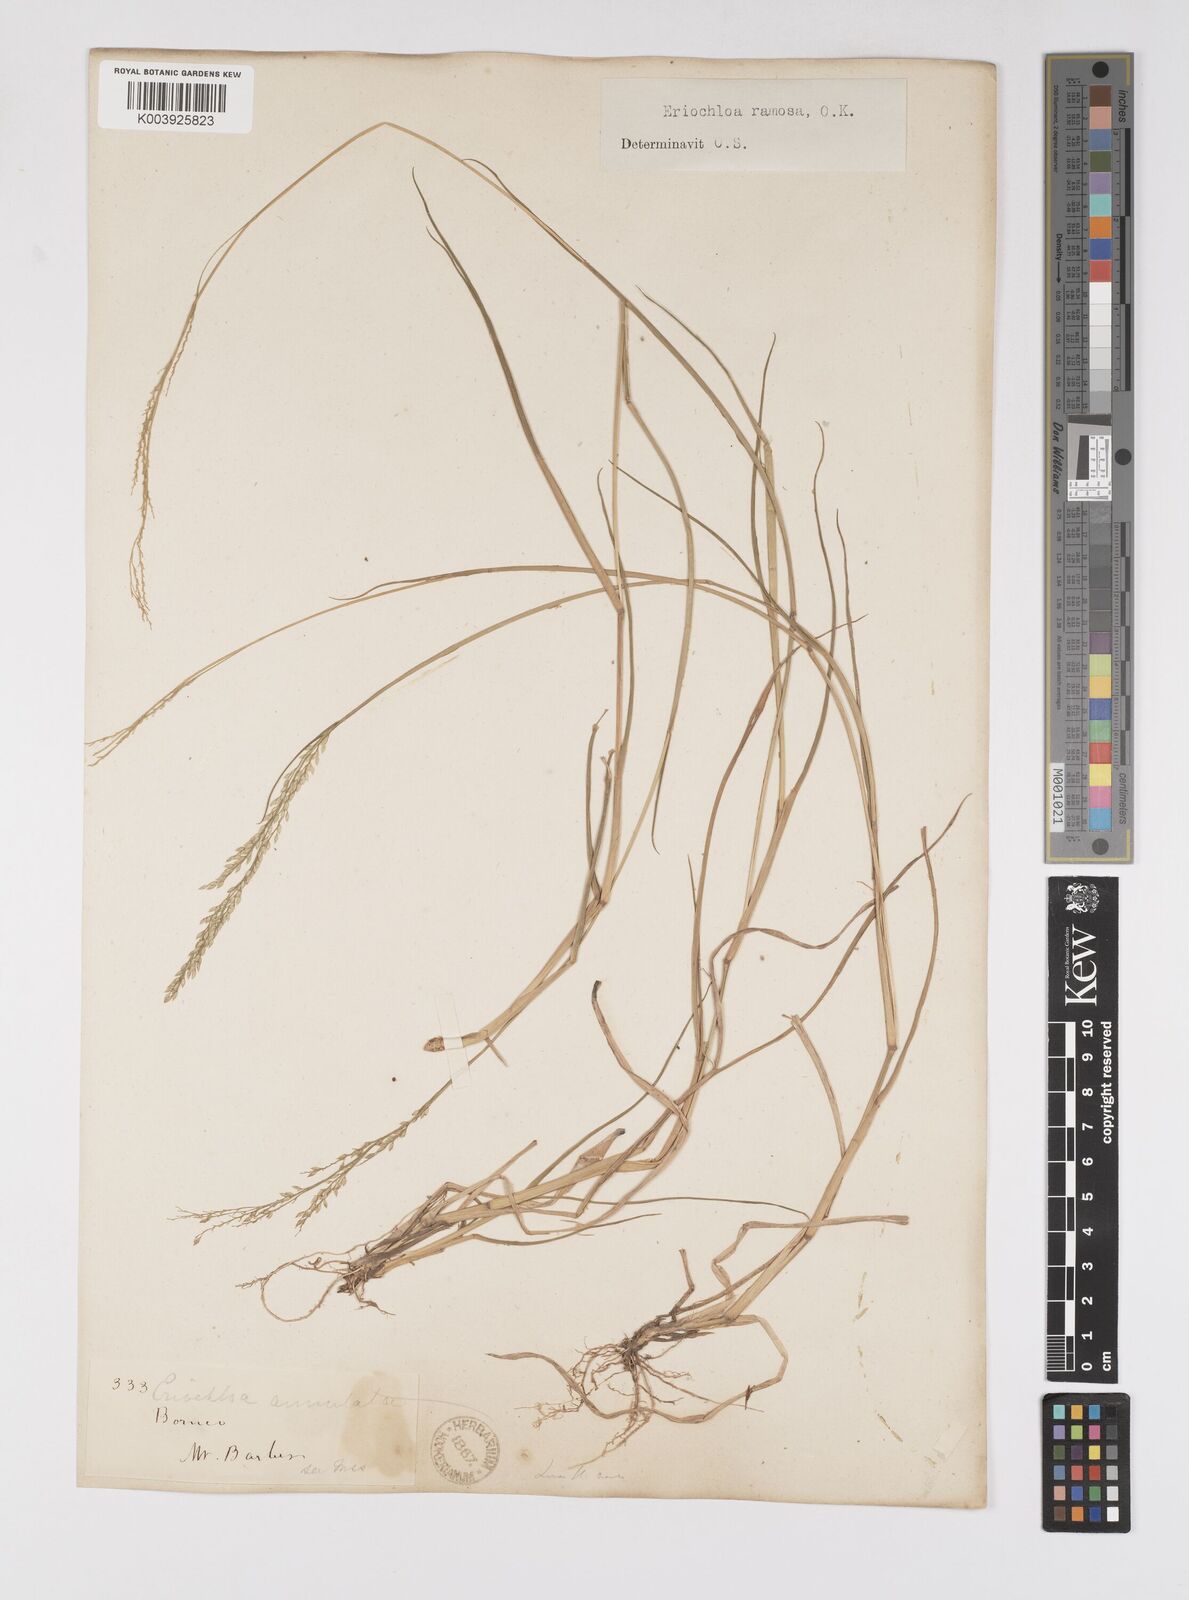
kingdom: Plantae
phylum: Tracheophyta
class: Liliopsida
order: Poales
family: Poaceae
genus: Eriochloa
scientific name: Eriochloa procera
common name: Spring grass
